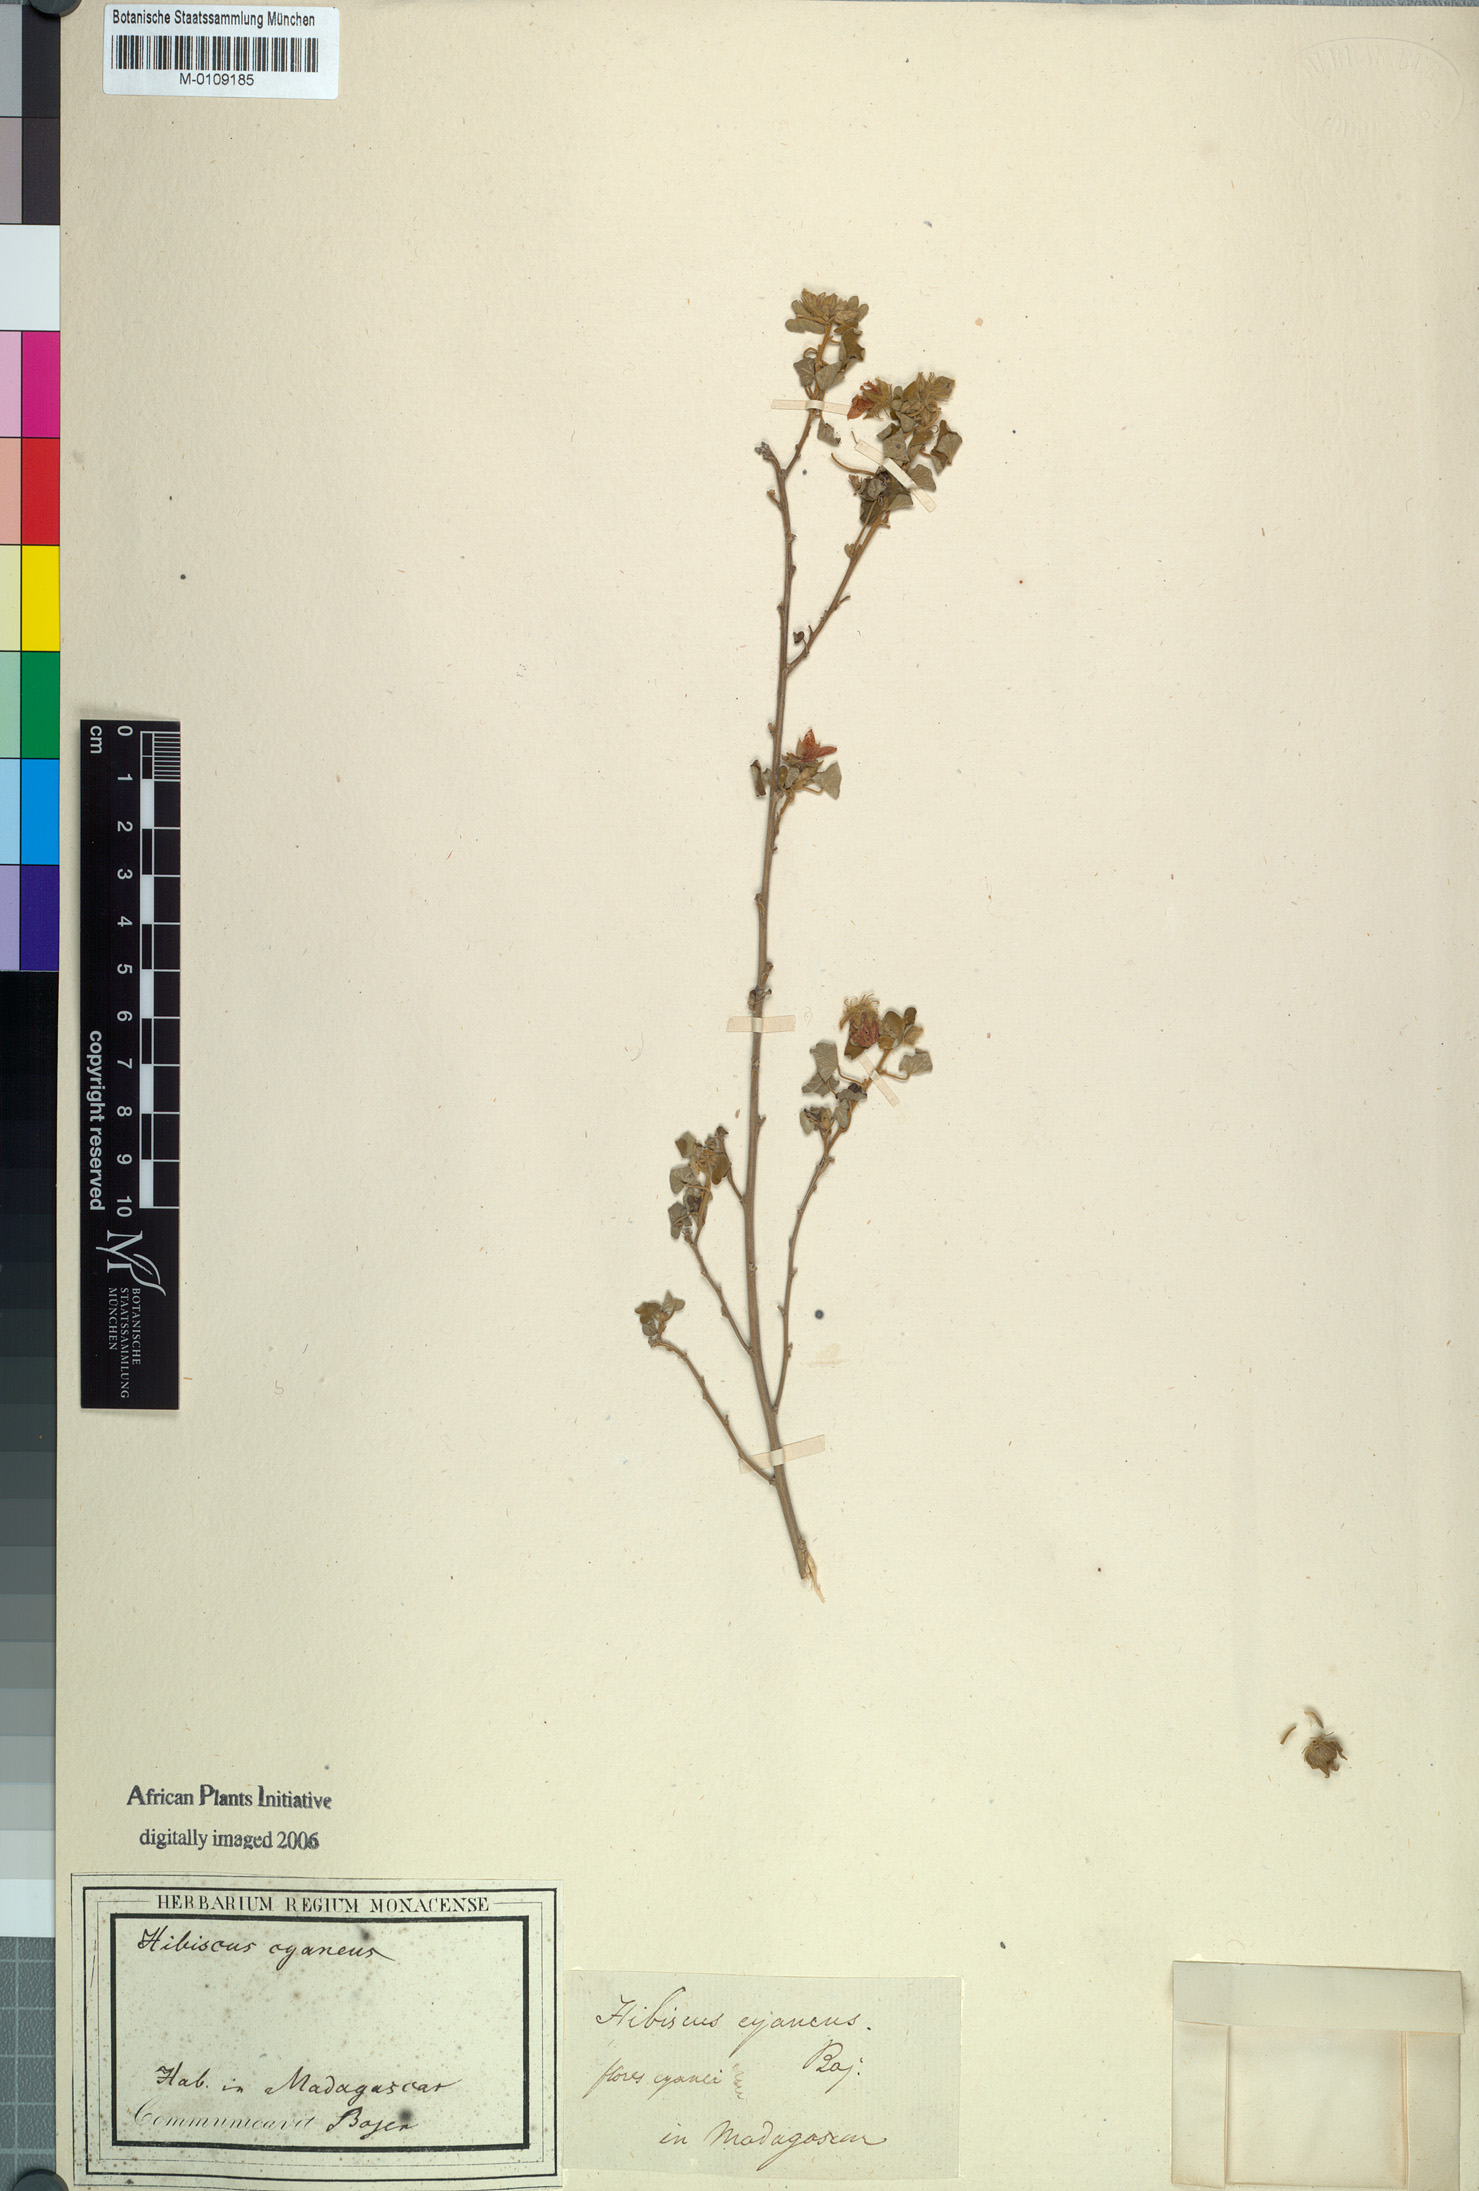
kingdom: Plantae
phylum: Tracheophyta
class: Magnoliopsida
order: Malvales
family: Malvaceae
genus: Hibiscus
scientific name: Hibiscus
